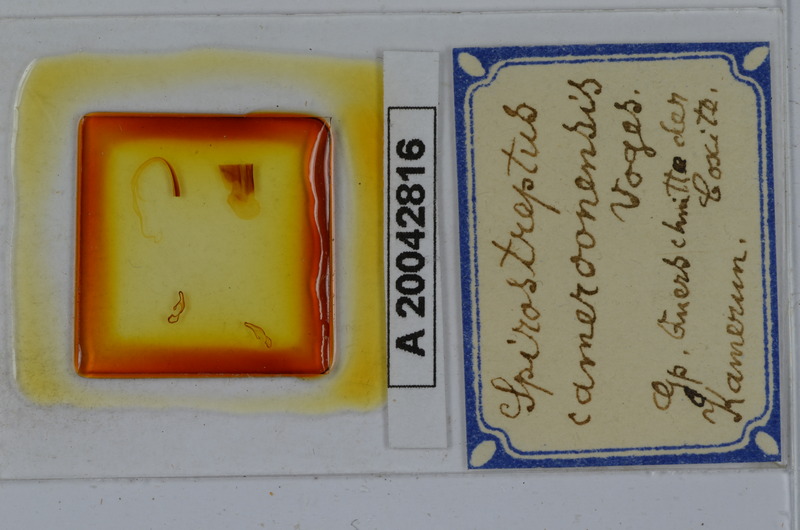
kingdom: Animalia
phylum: Arthropoda
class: Diplopoda
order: Spirostreptida
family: Spirostreptidae
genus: Kartinikus
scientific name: Kartinikus laevis
